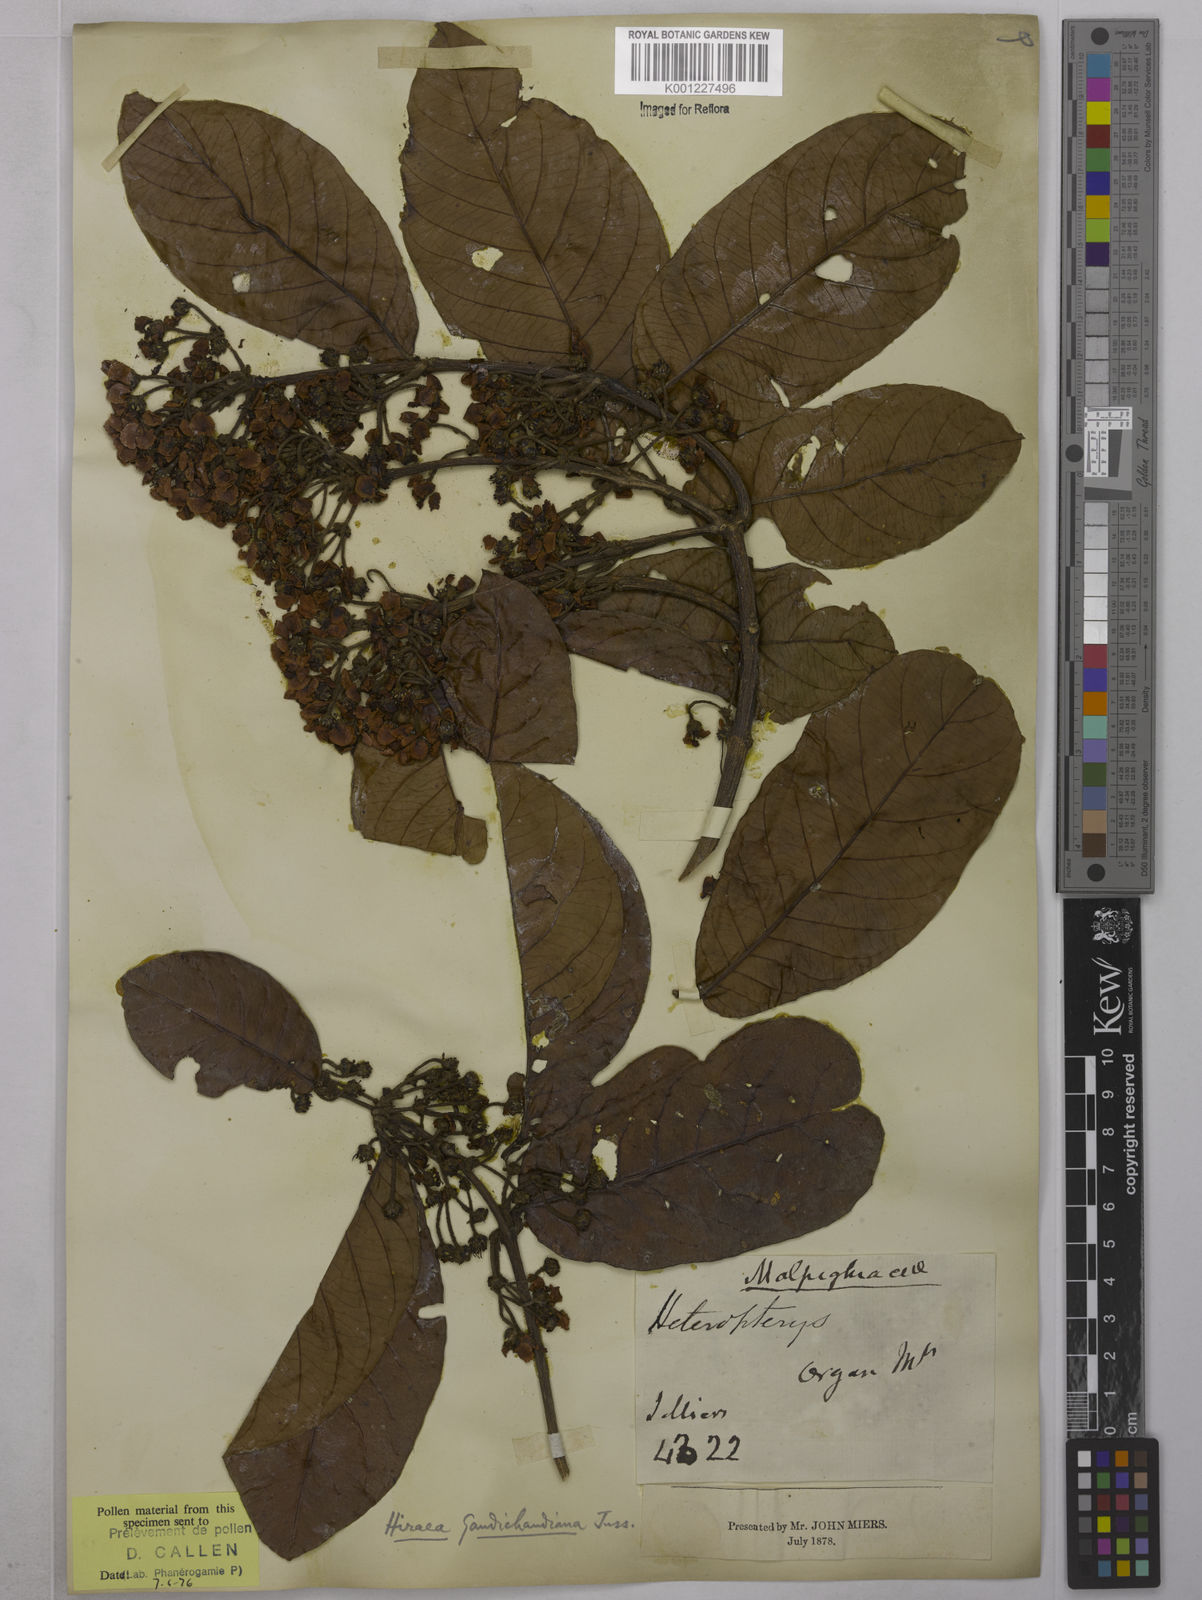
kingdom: Plantae
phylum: Tracheophyta
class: Magnoliopsida
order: Malpighiales
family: Malpighiaceae
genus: Hiraea
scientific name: Hiraea gaudichaudiana
